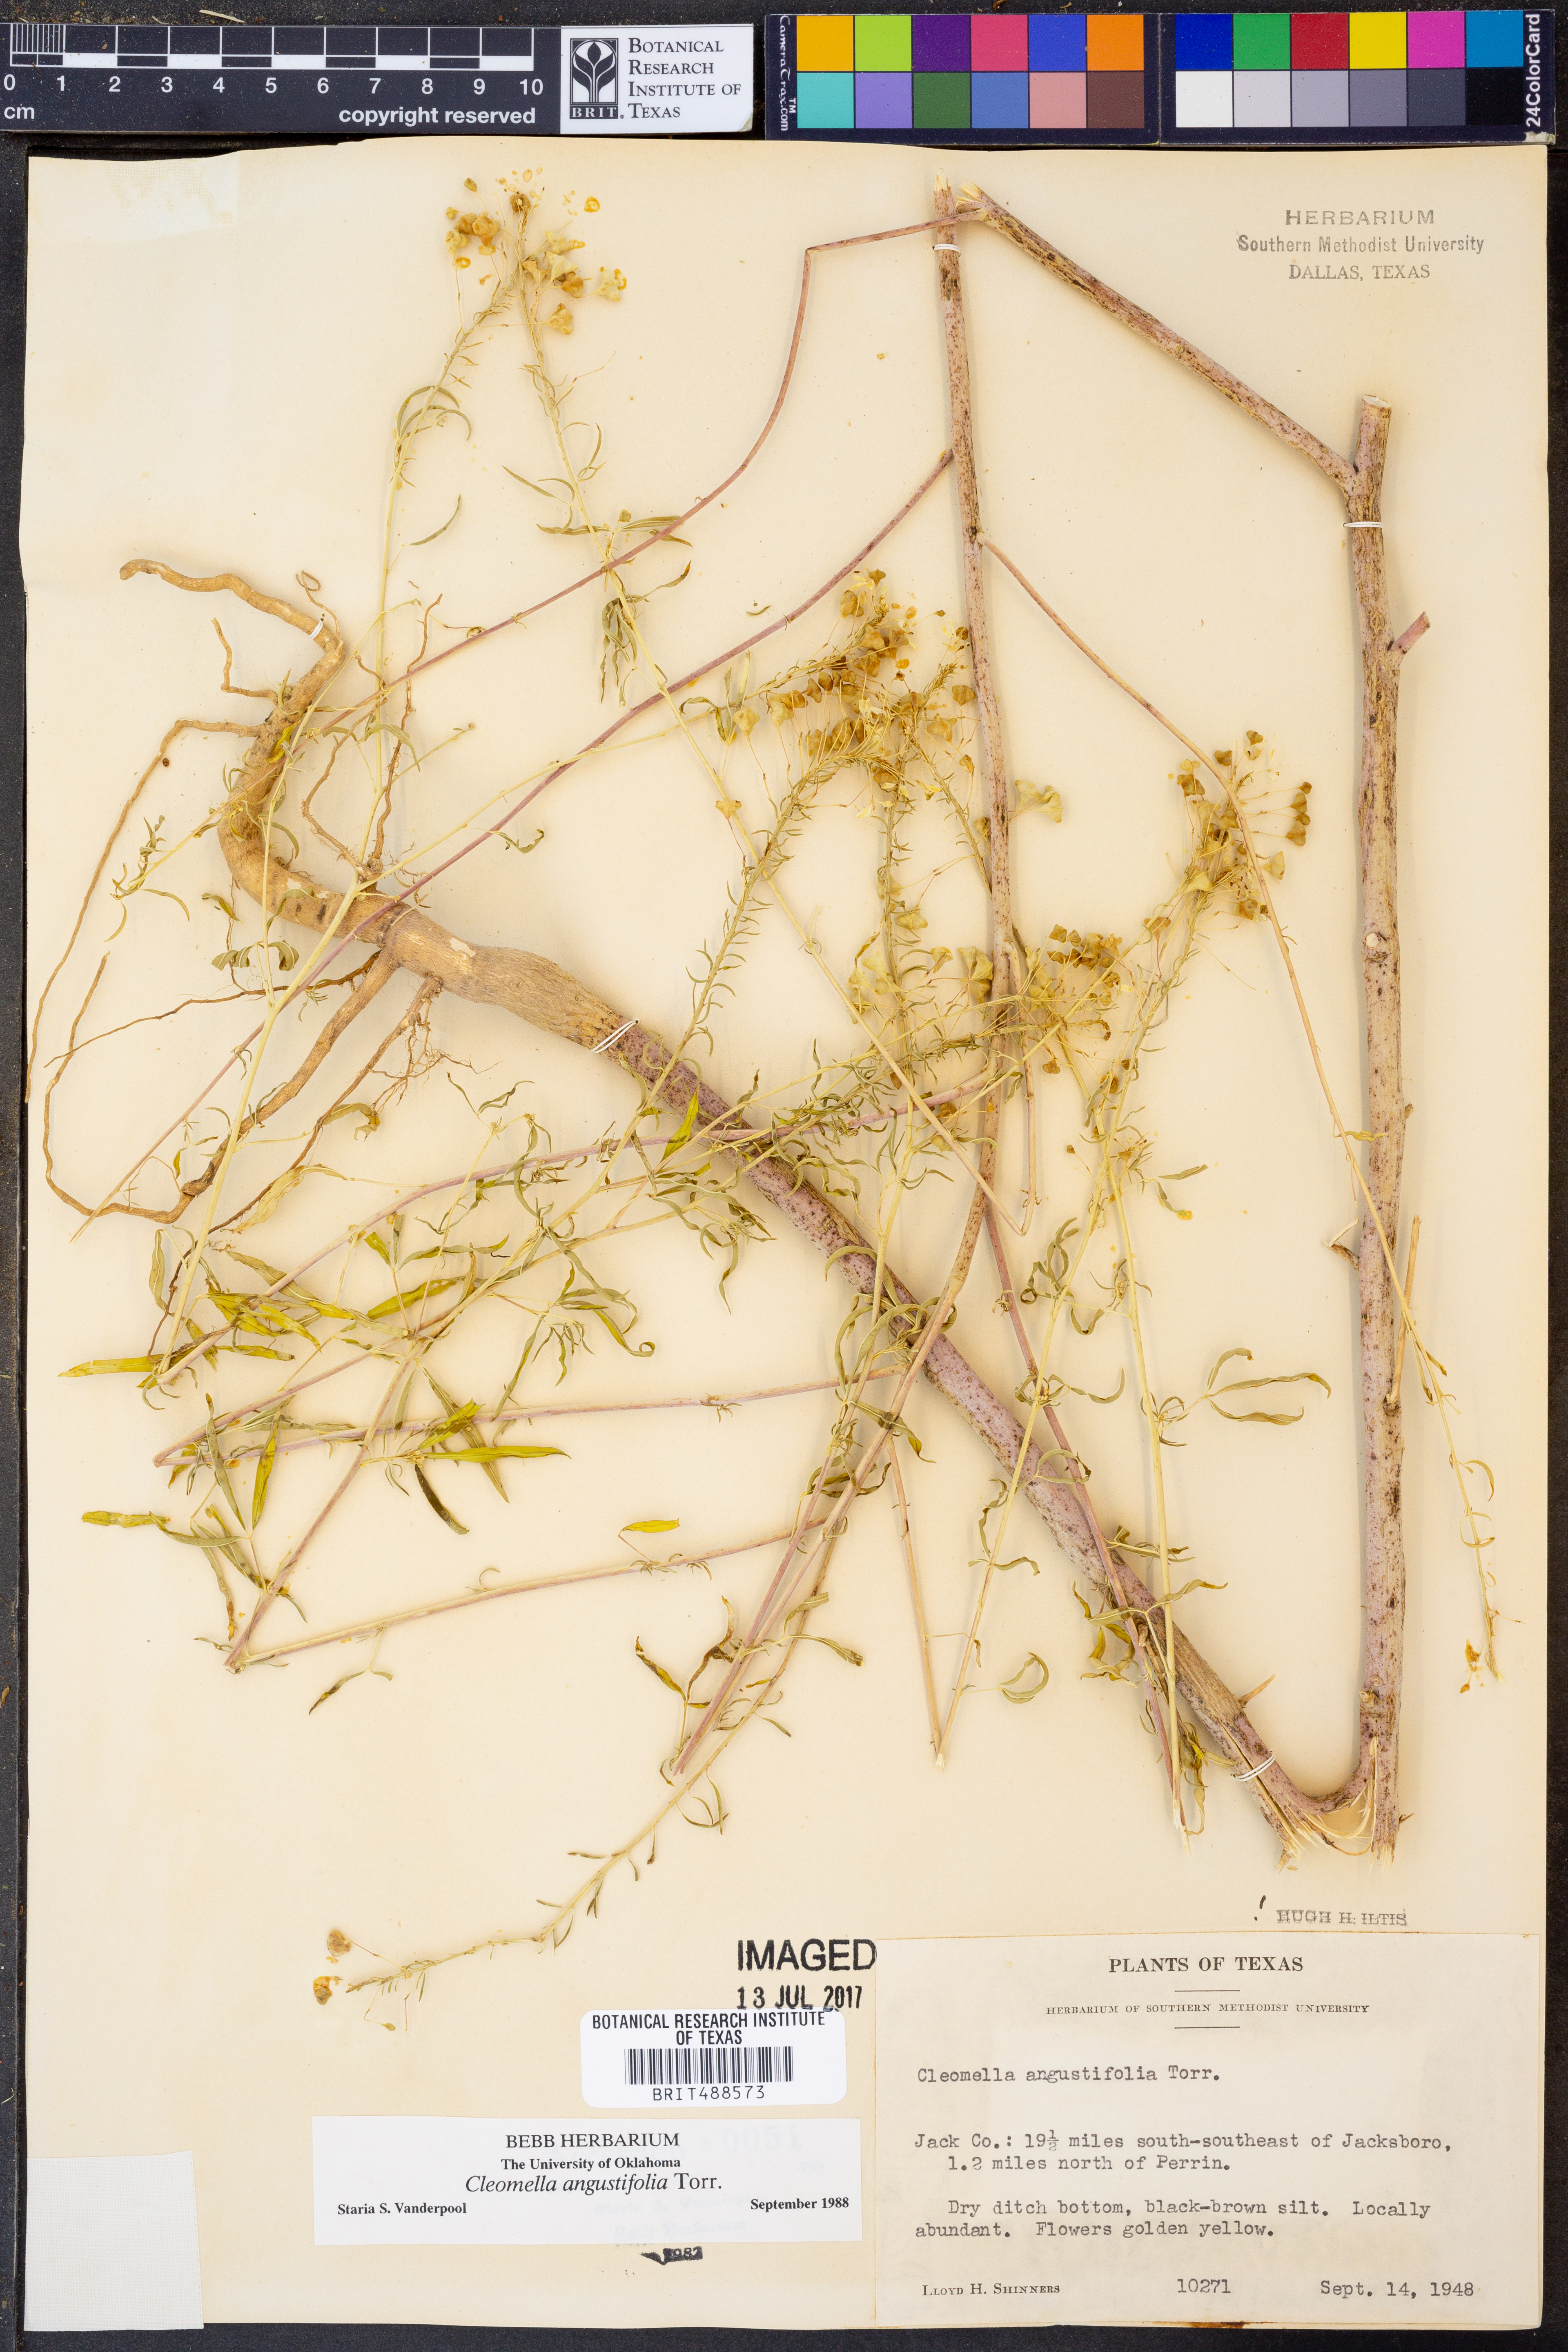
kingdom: Plantae
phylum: Tracheophyta
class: Magnoliopsida
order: Brassicales
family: Cleomaceae
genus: Cleomella
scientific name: Cleomella angustifolia
